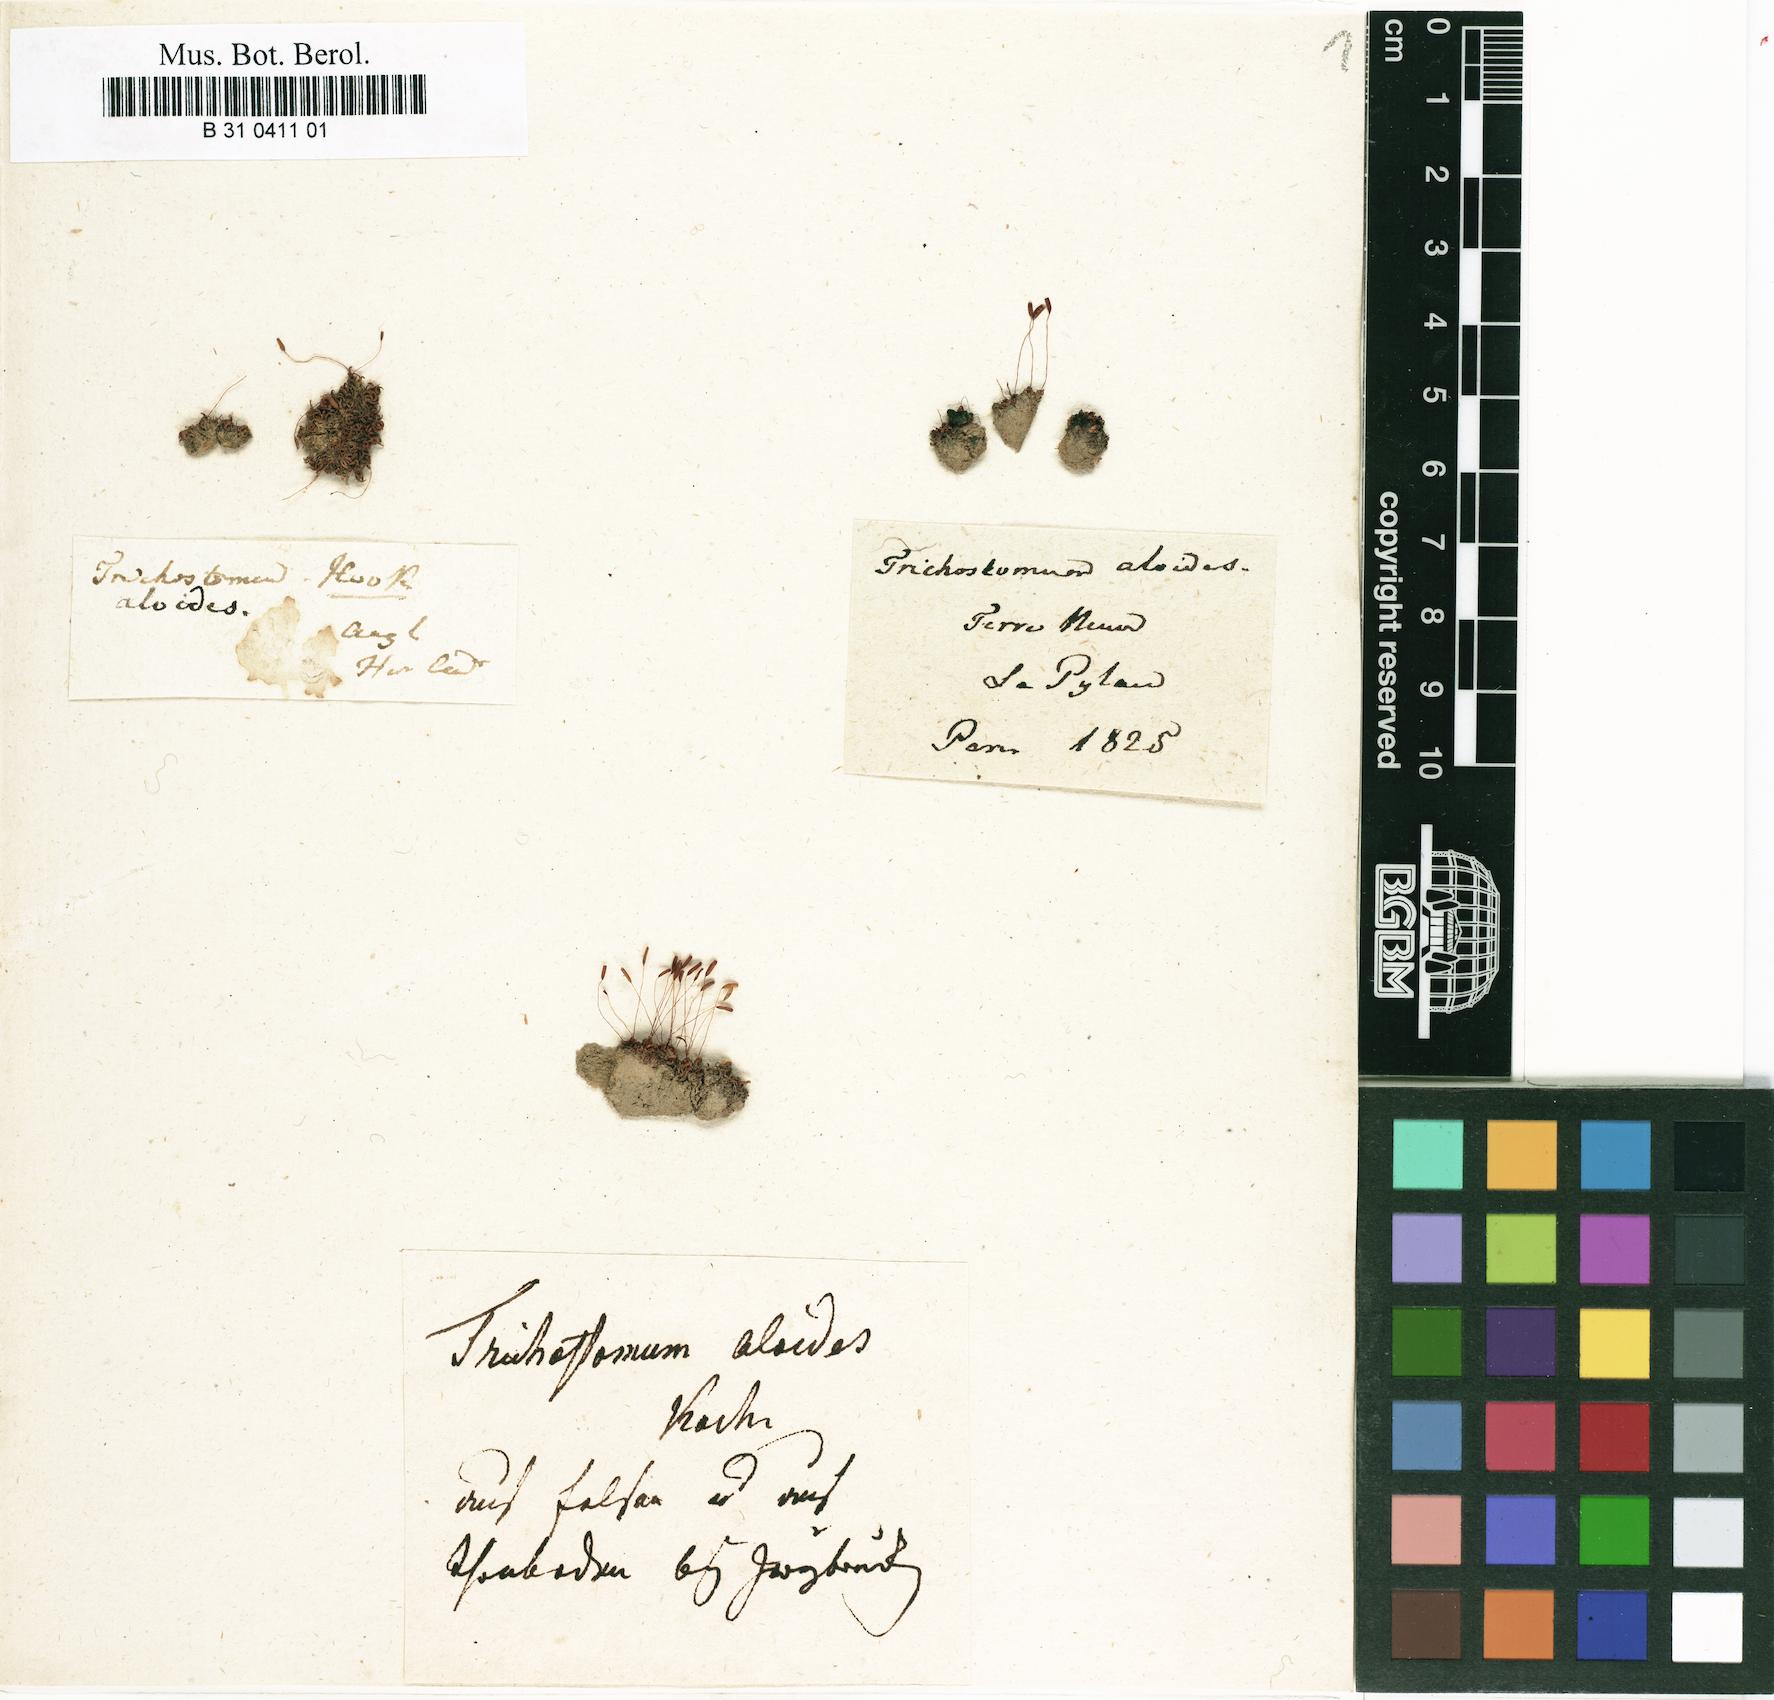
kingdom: Plantae
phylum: Bryophyta
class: Bryopsida
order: Pottiales
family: Pottiaceae
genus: Aloina
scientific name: Aloina aloides
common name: Common aloe-moss
